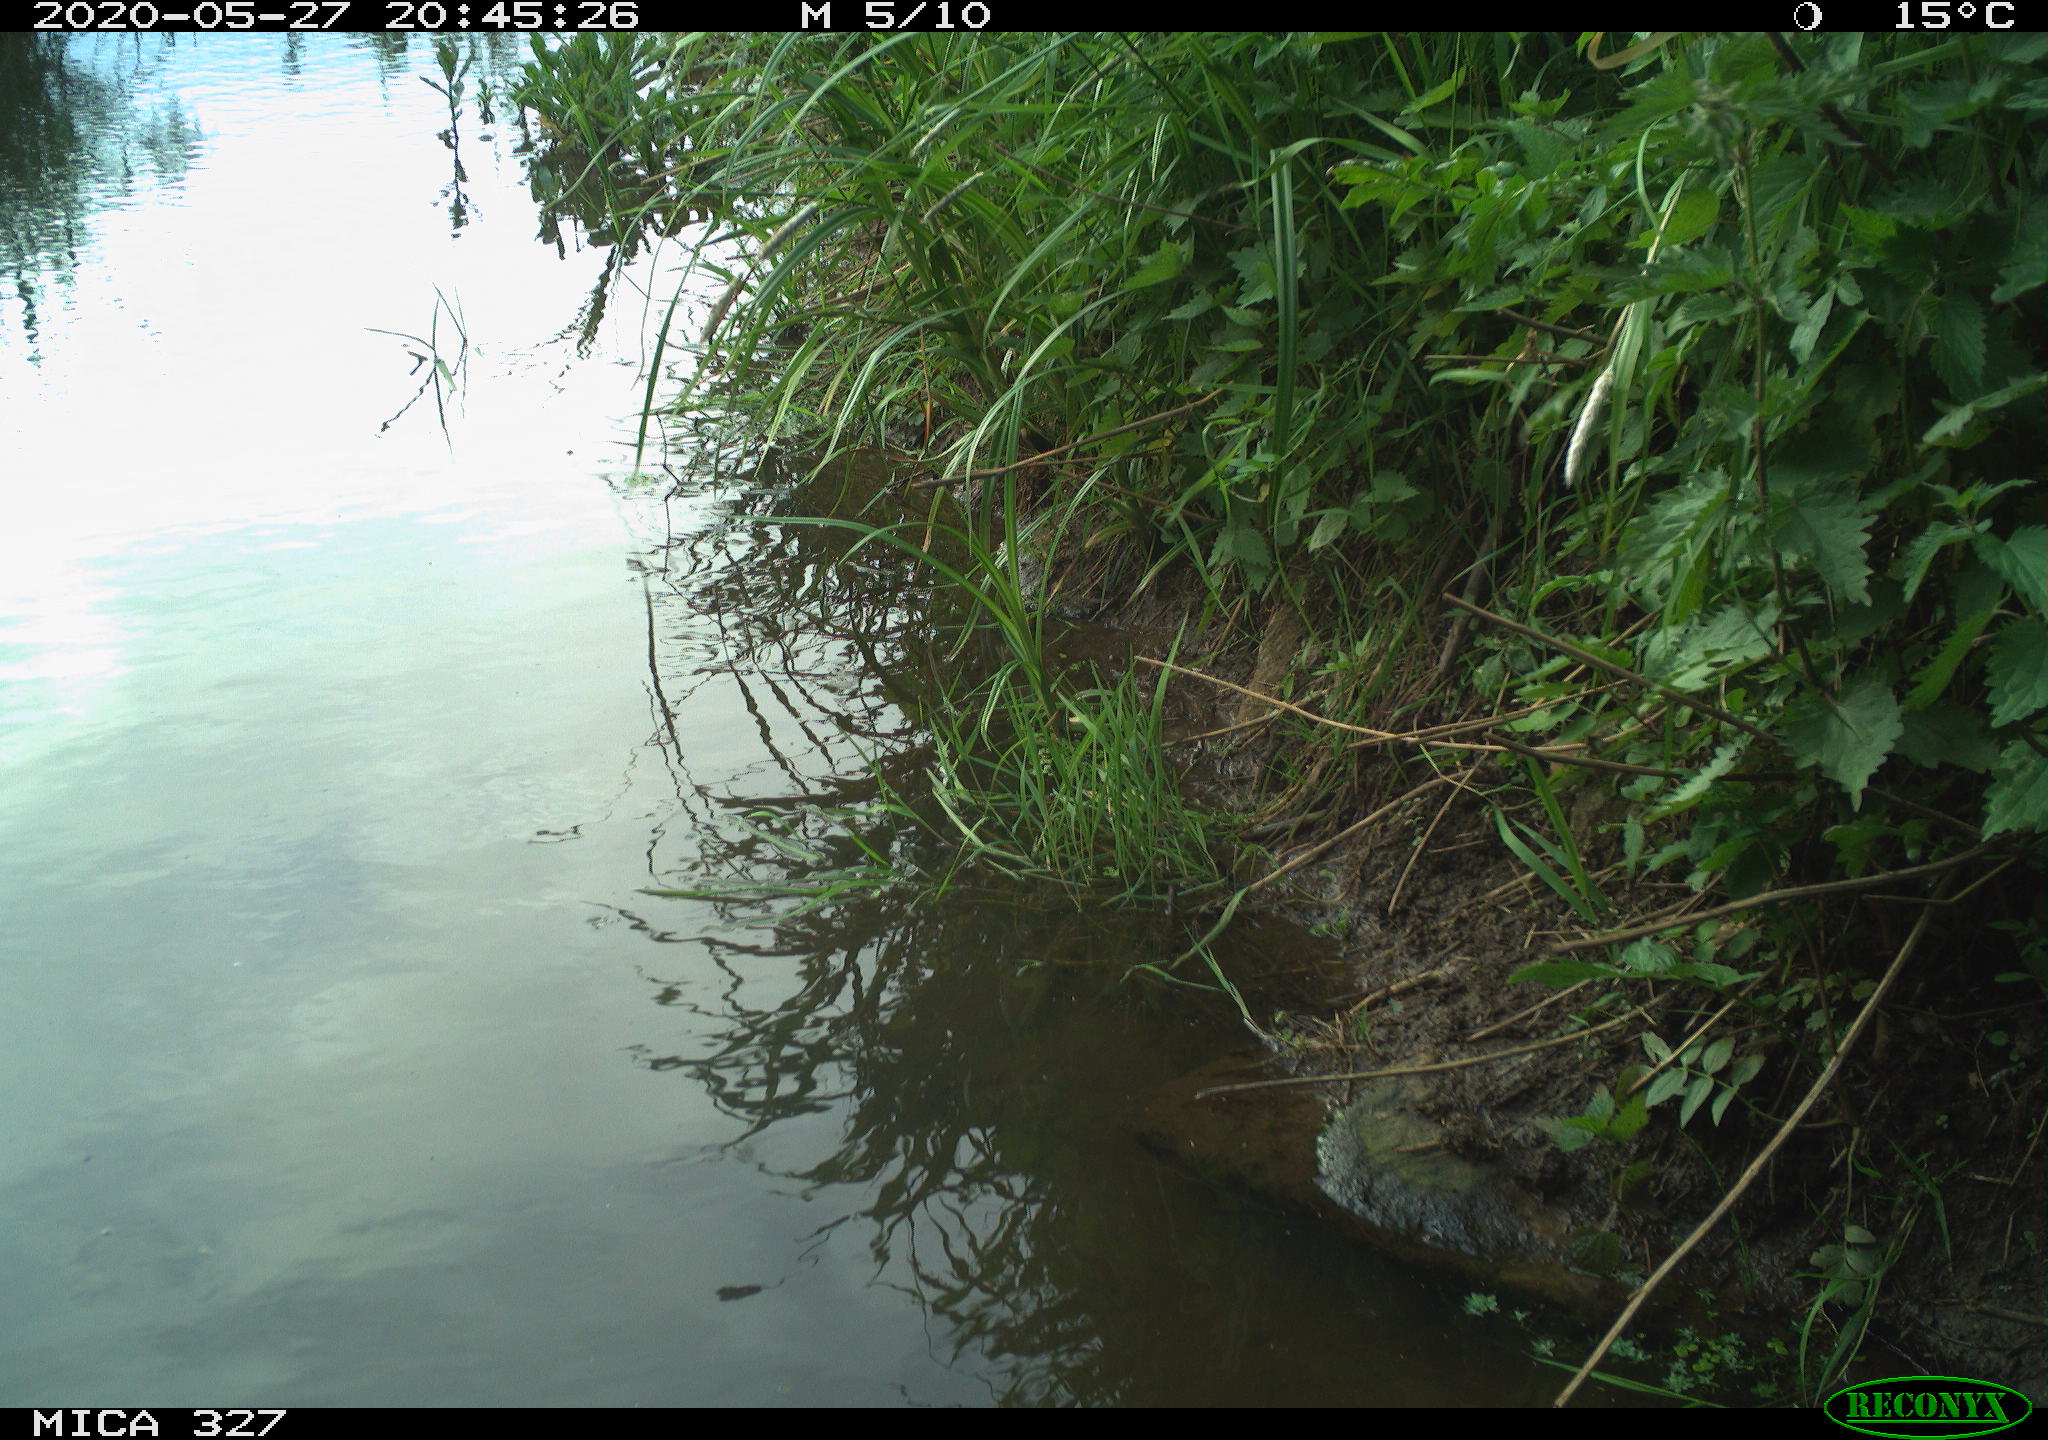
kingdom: Animalia
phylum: Chordata
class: Mammalia
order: Rodentia
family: Muridae
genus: Rattus
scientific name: Rattus norvegicus
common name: Brown rat
